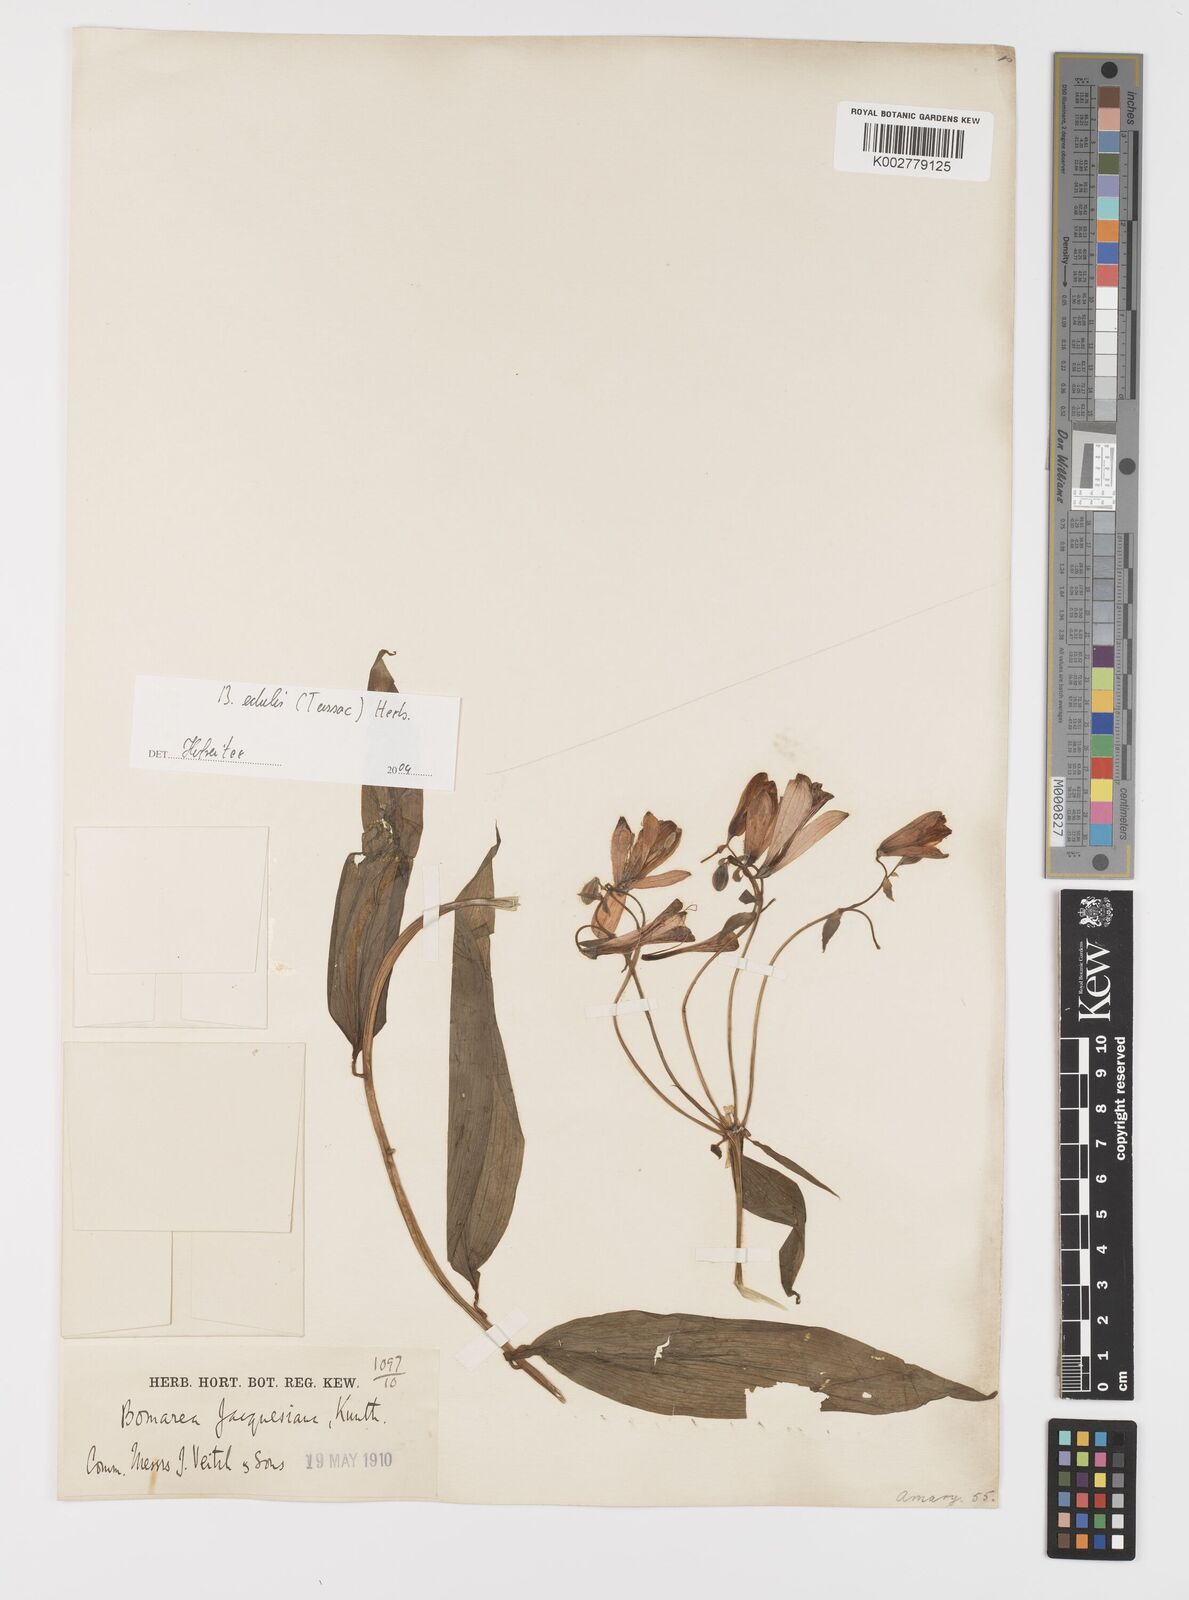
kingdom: Plantae
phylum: Tracheophyta
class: Liliopsida
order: Liliales
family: Alstroemeriaceae
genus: Bomarea
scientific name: Bomarea edulis
